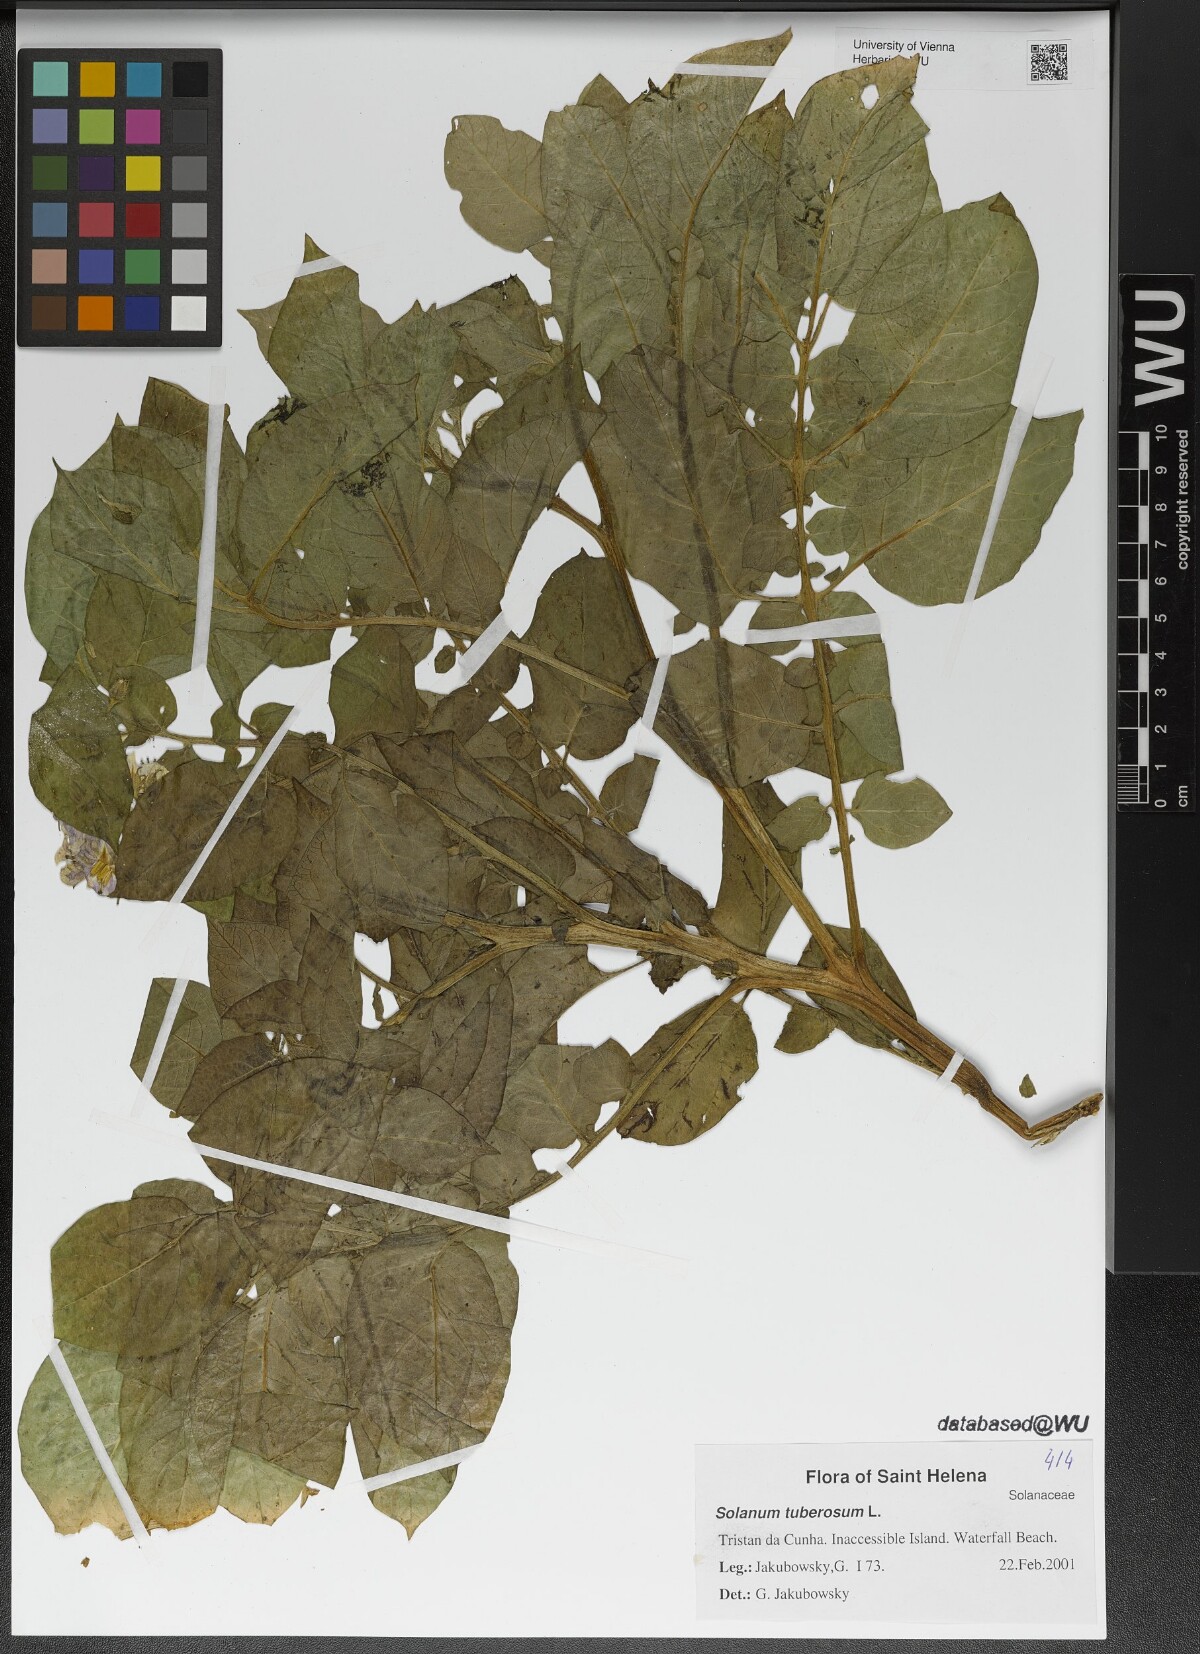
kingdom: Plantae
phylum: Tracheophyta
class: Magnoliopsida
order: Solanales
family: Solanaceae
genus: Solanum
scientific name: Solanum tuberosum
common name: Potato
